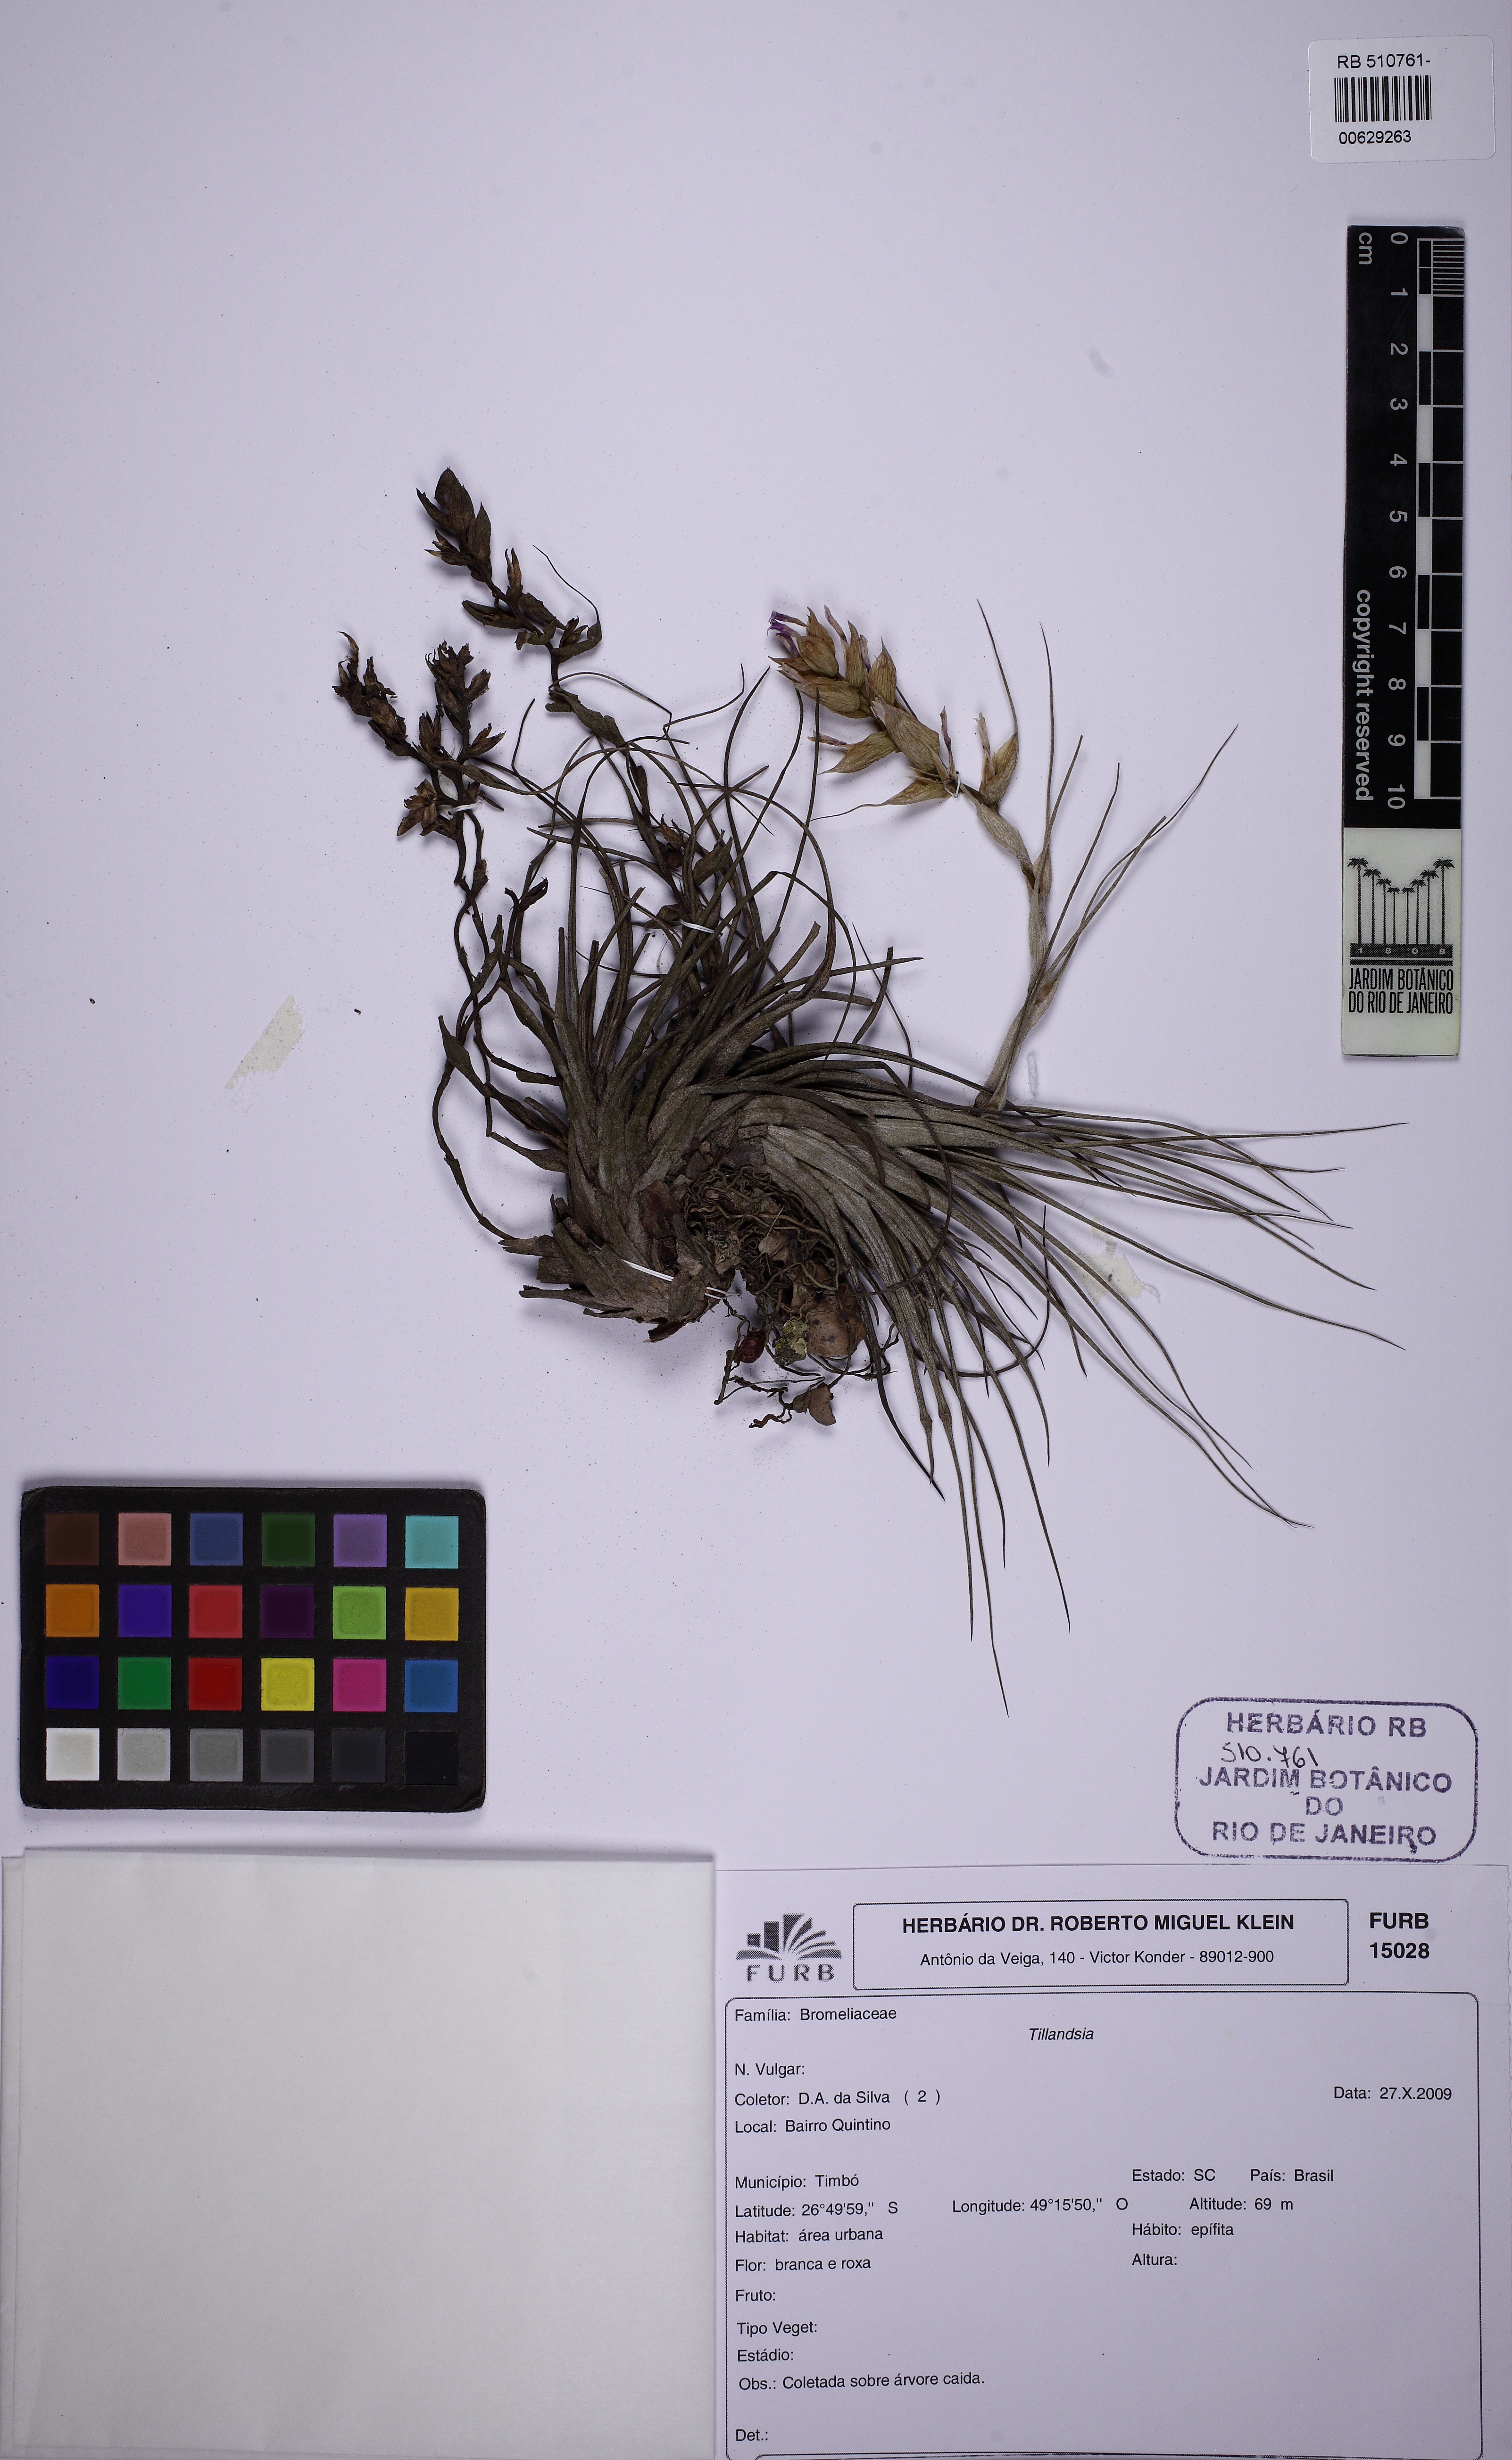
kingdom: Plantae
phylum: Tracheophyta
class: Liliopsida
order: Poales
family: Bromeliaceae
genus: Tillandsia
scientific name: Tillandsia stricta
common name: Airplant
